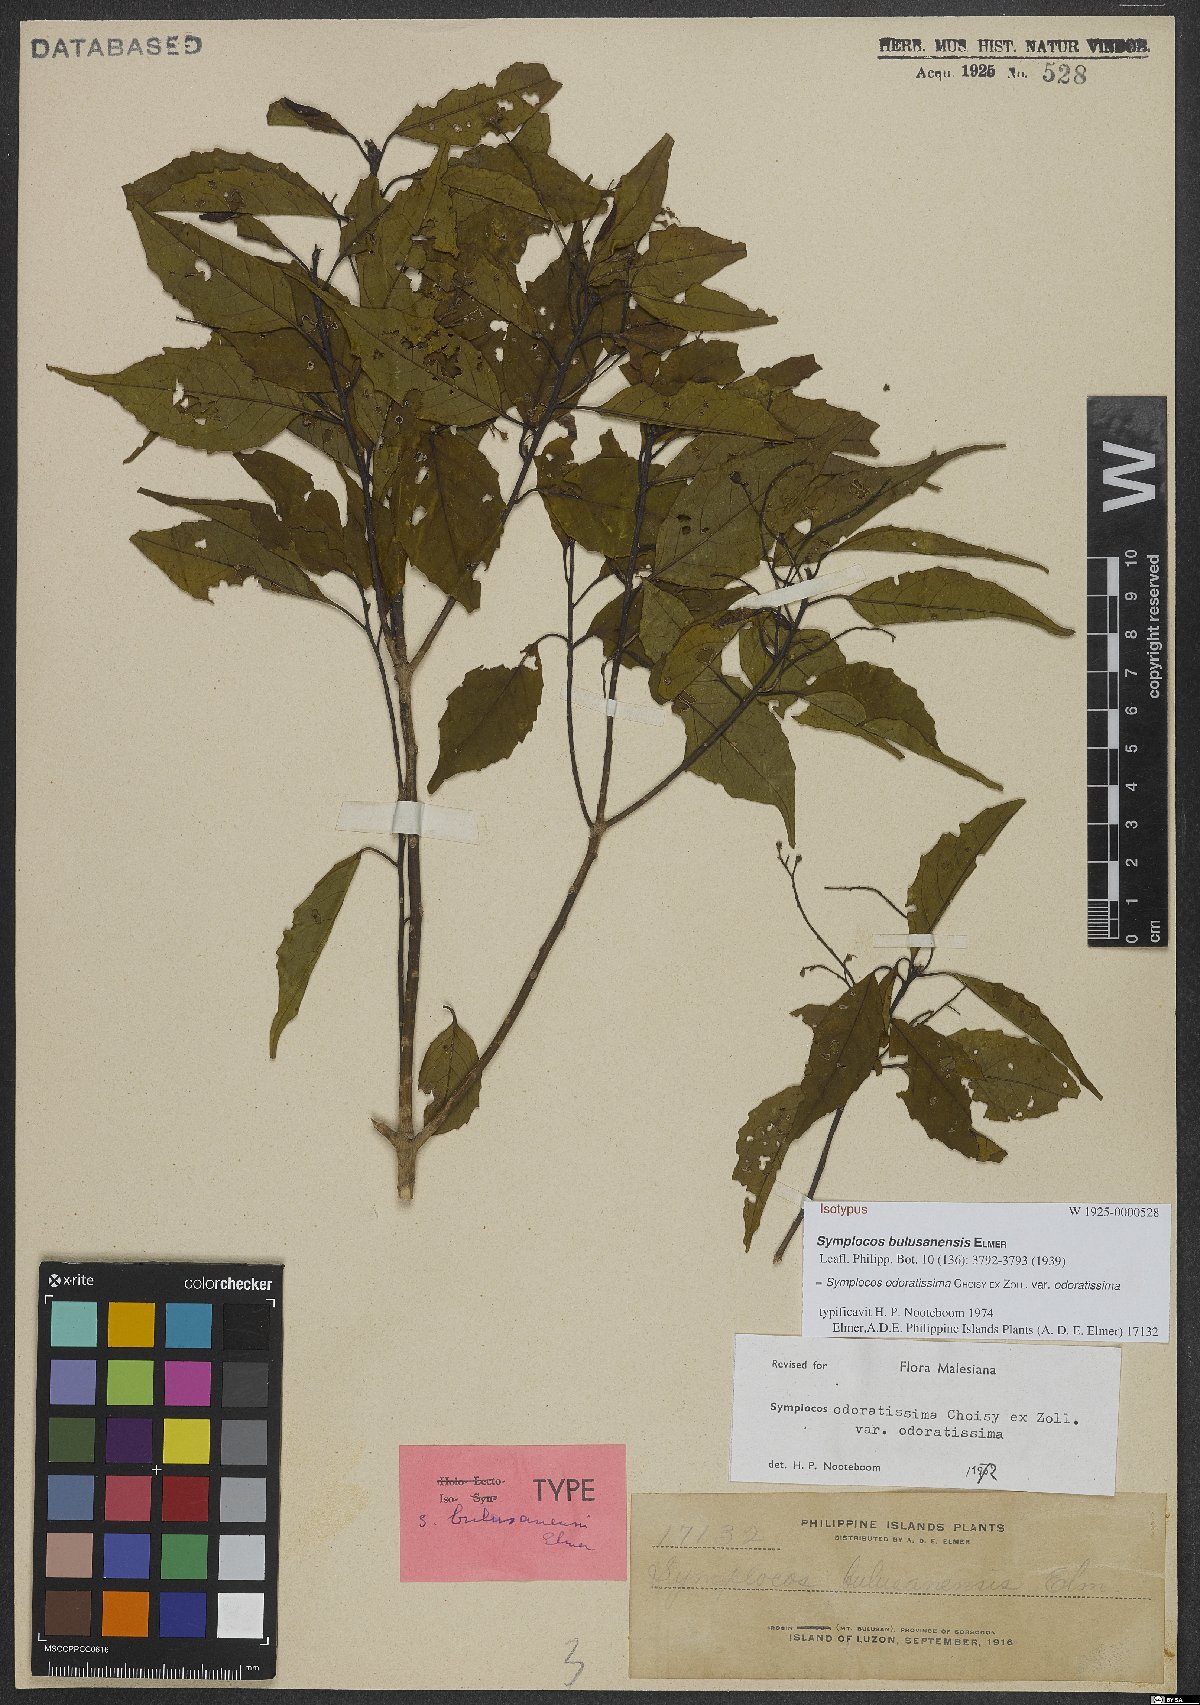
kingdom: Plantae
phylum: Tracheophyta
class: Magnoliopsida
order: Ericales
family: Symplocaceae
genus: Symplocos
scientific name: Symplocos odoratissima
